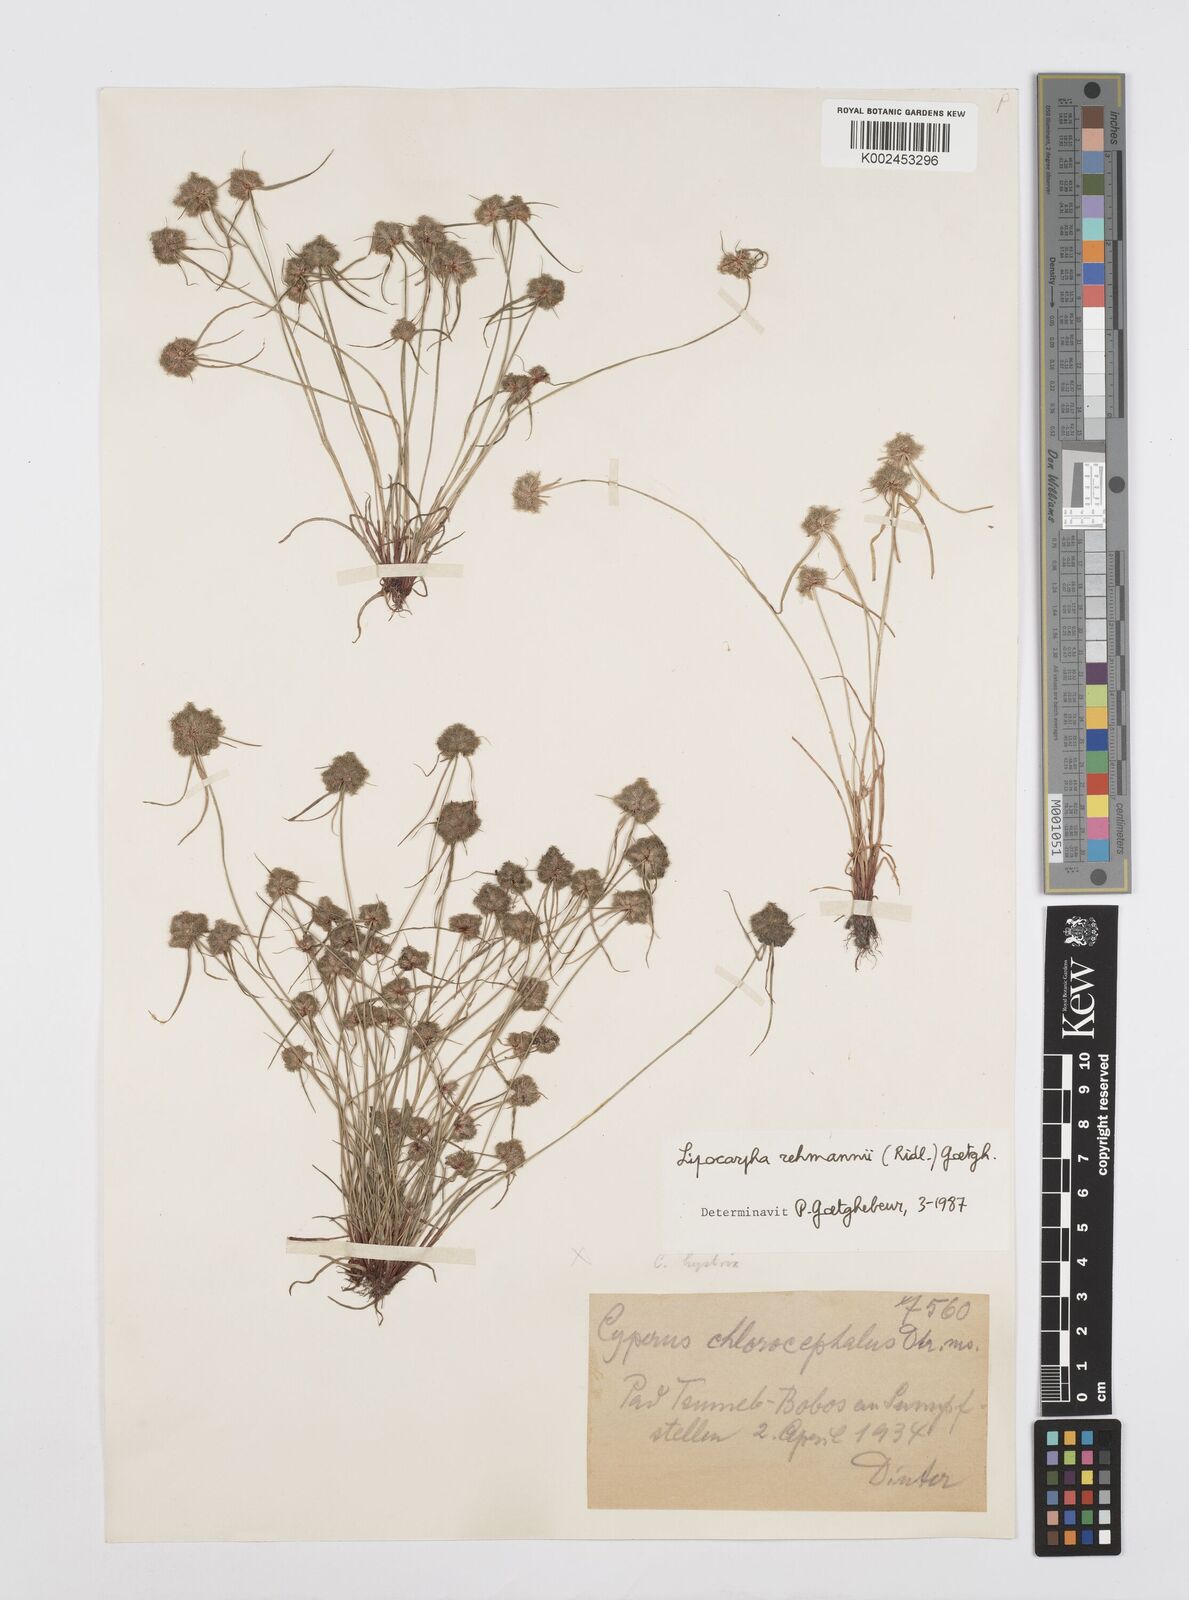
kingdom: Plantae
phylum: Tracheophyta
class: Liliopsida
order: Poales
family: Cyperaceae
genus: Cyperus
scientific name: Cyperus sanguinolentus
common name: Purpleglume flatsedge
